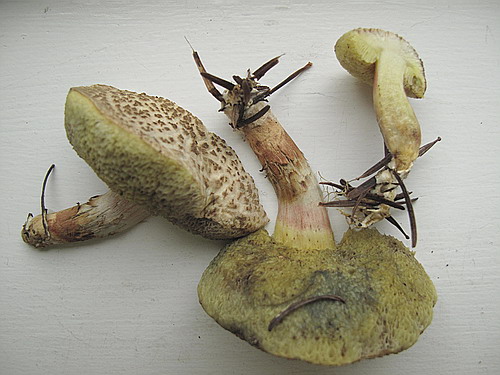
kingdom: Fungi
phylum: Basidiomycota
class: Agaricomycetes
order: Boletales
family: Boletaceae
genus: Xerocomellus
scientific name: Xerocomellus porosporus
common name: hvidsprukken rørhat
